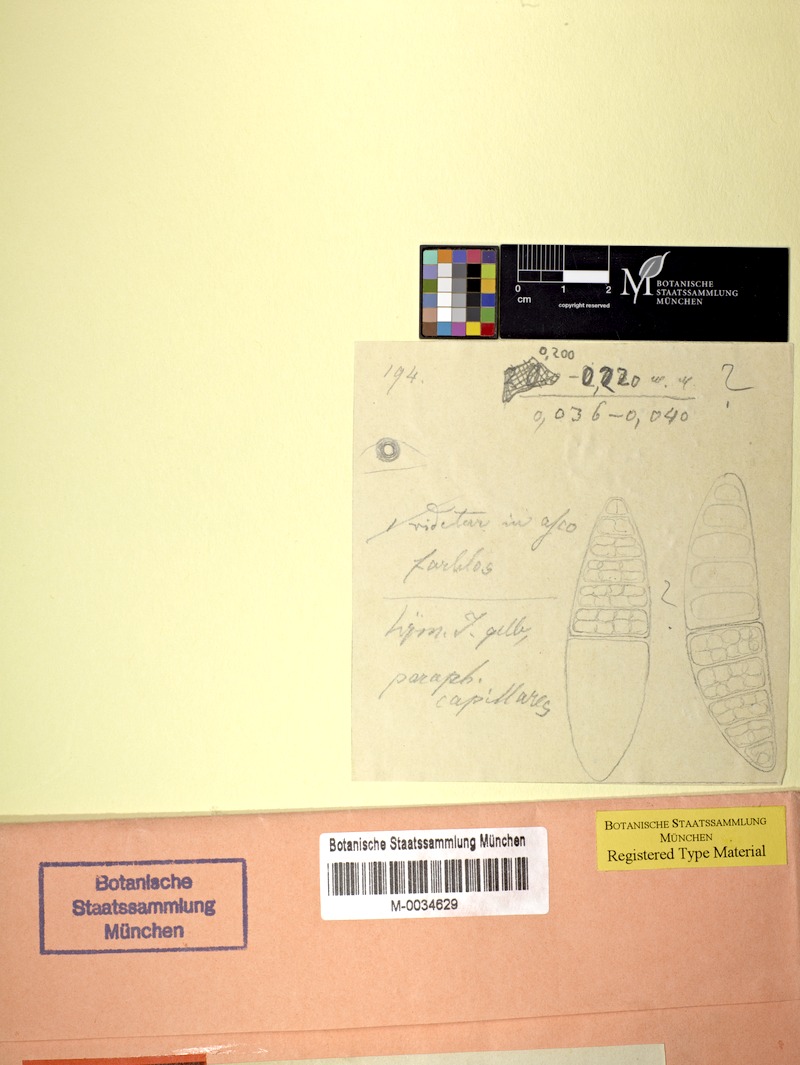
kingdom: Fungi
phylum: Ascomycota
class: Lecanoromycetes
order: Ostropales
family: Graphidaceae
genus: Thelotrema
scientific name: Thelotrema dignitosum
